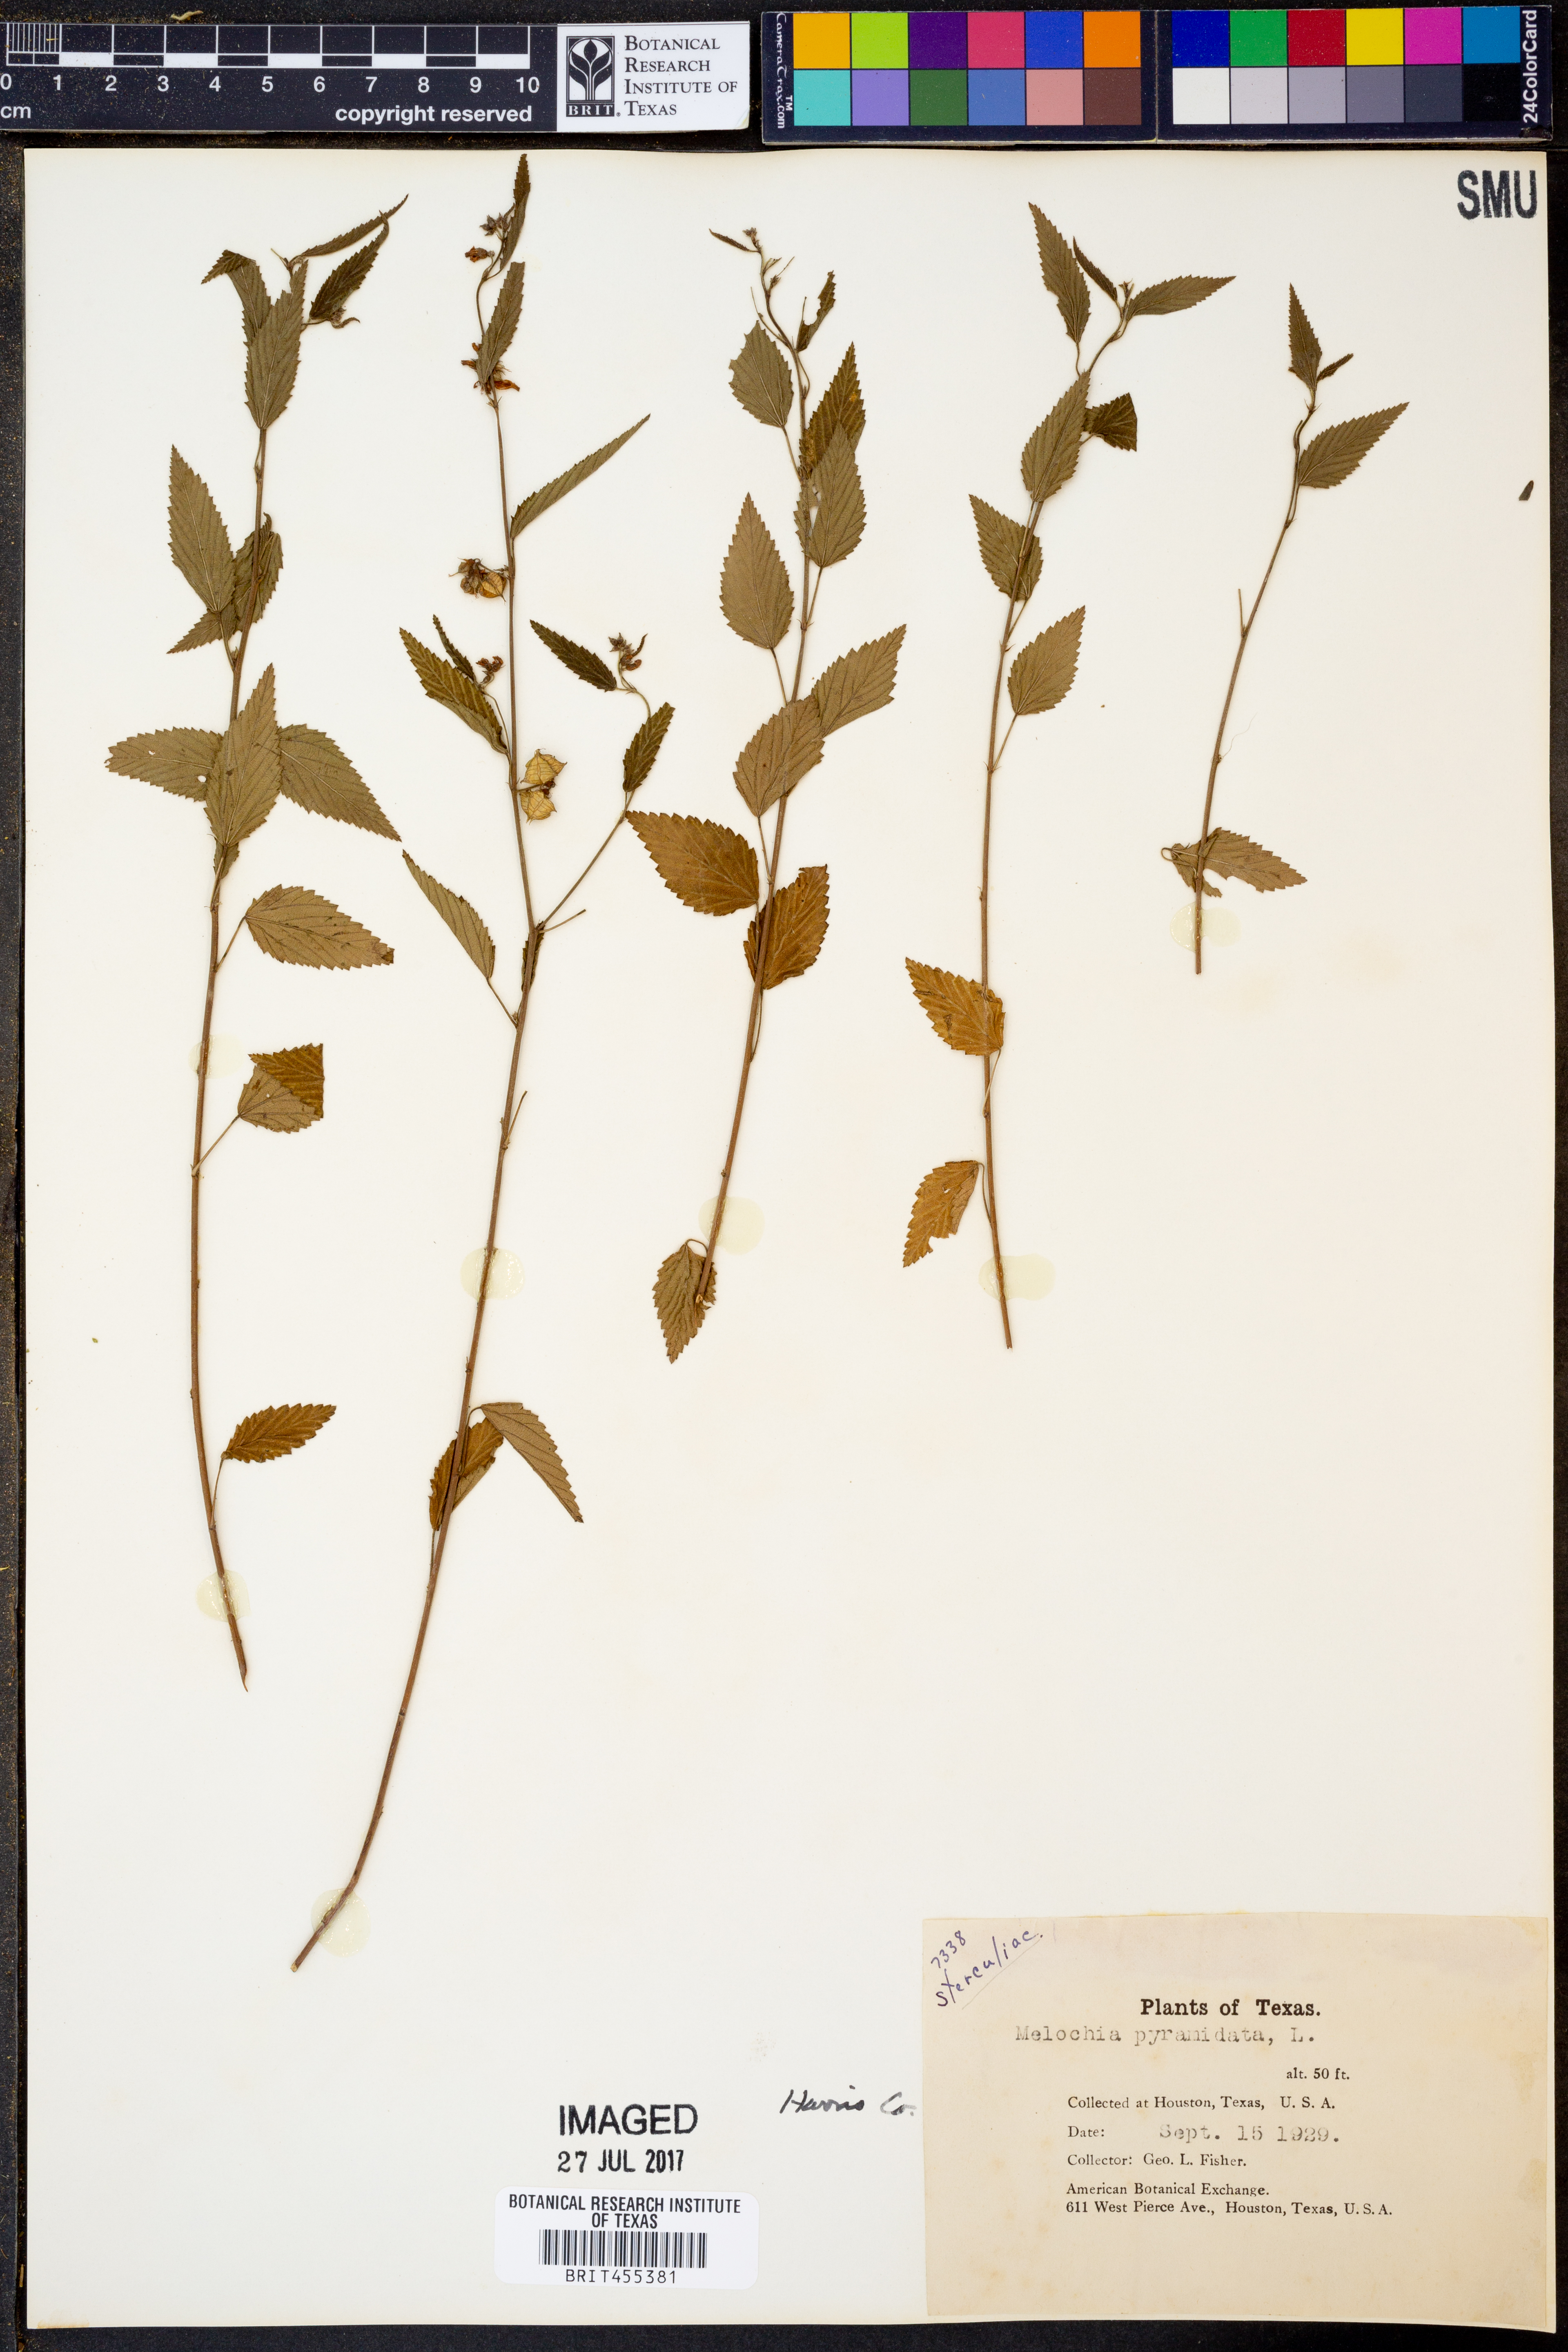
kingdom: Plantae
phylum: Tracheophyta
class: Magnoliopsida
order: Malvales
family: Malvaceae
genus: Melochia
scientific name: Melochia pyramidata
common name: Pyramidflower
